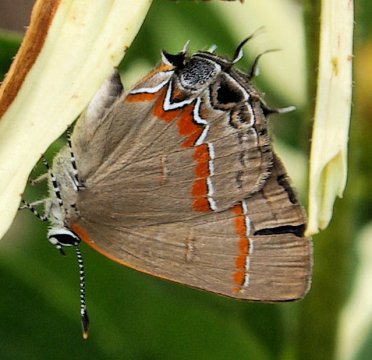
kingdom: Animalia
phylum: Arthropoda
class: Insecta
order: Lepidoptera
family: Lycaenidae
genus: Calycopis
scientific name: Calycopis cecrops
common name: Red-banded Hairstreak
